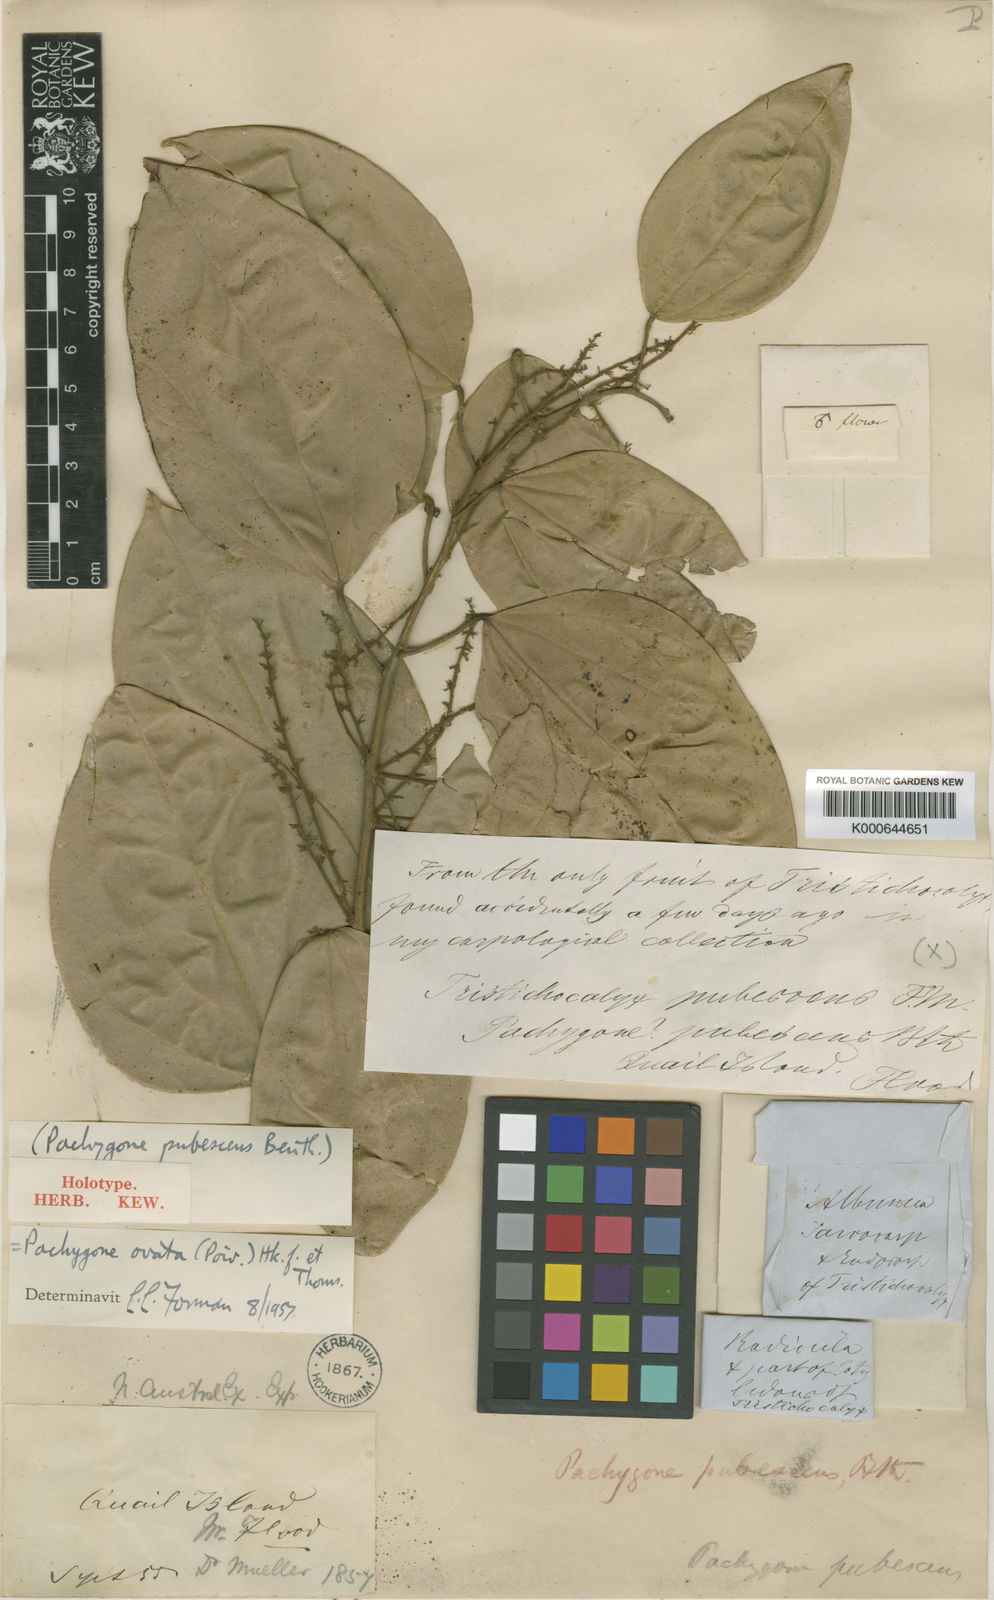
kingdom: Plantae
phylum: Tracheophyta
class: Magnoliopsida
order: Ranunculales
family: Menispermaceae
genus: Pachygone
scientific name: Pachygone ovata
